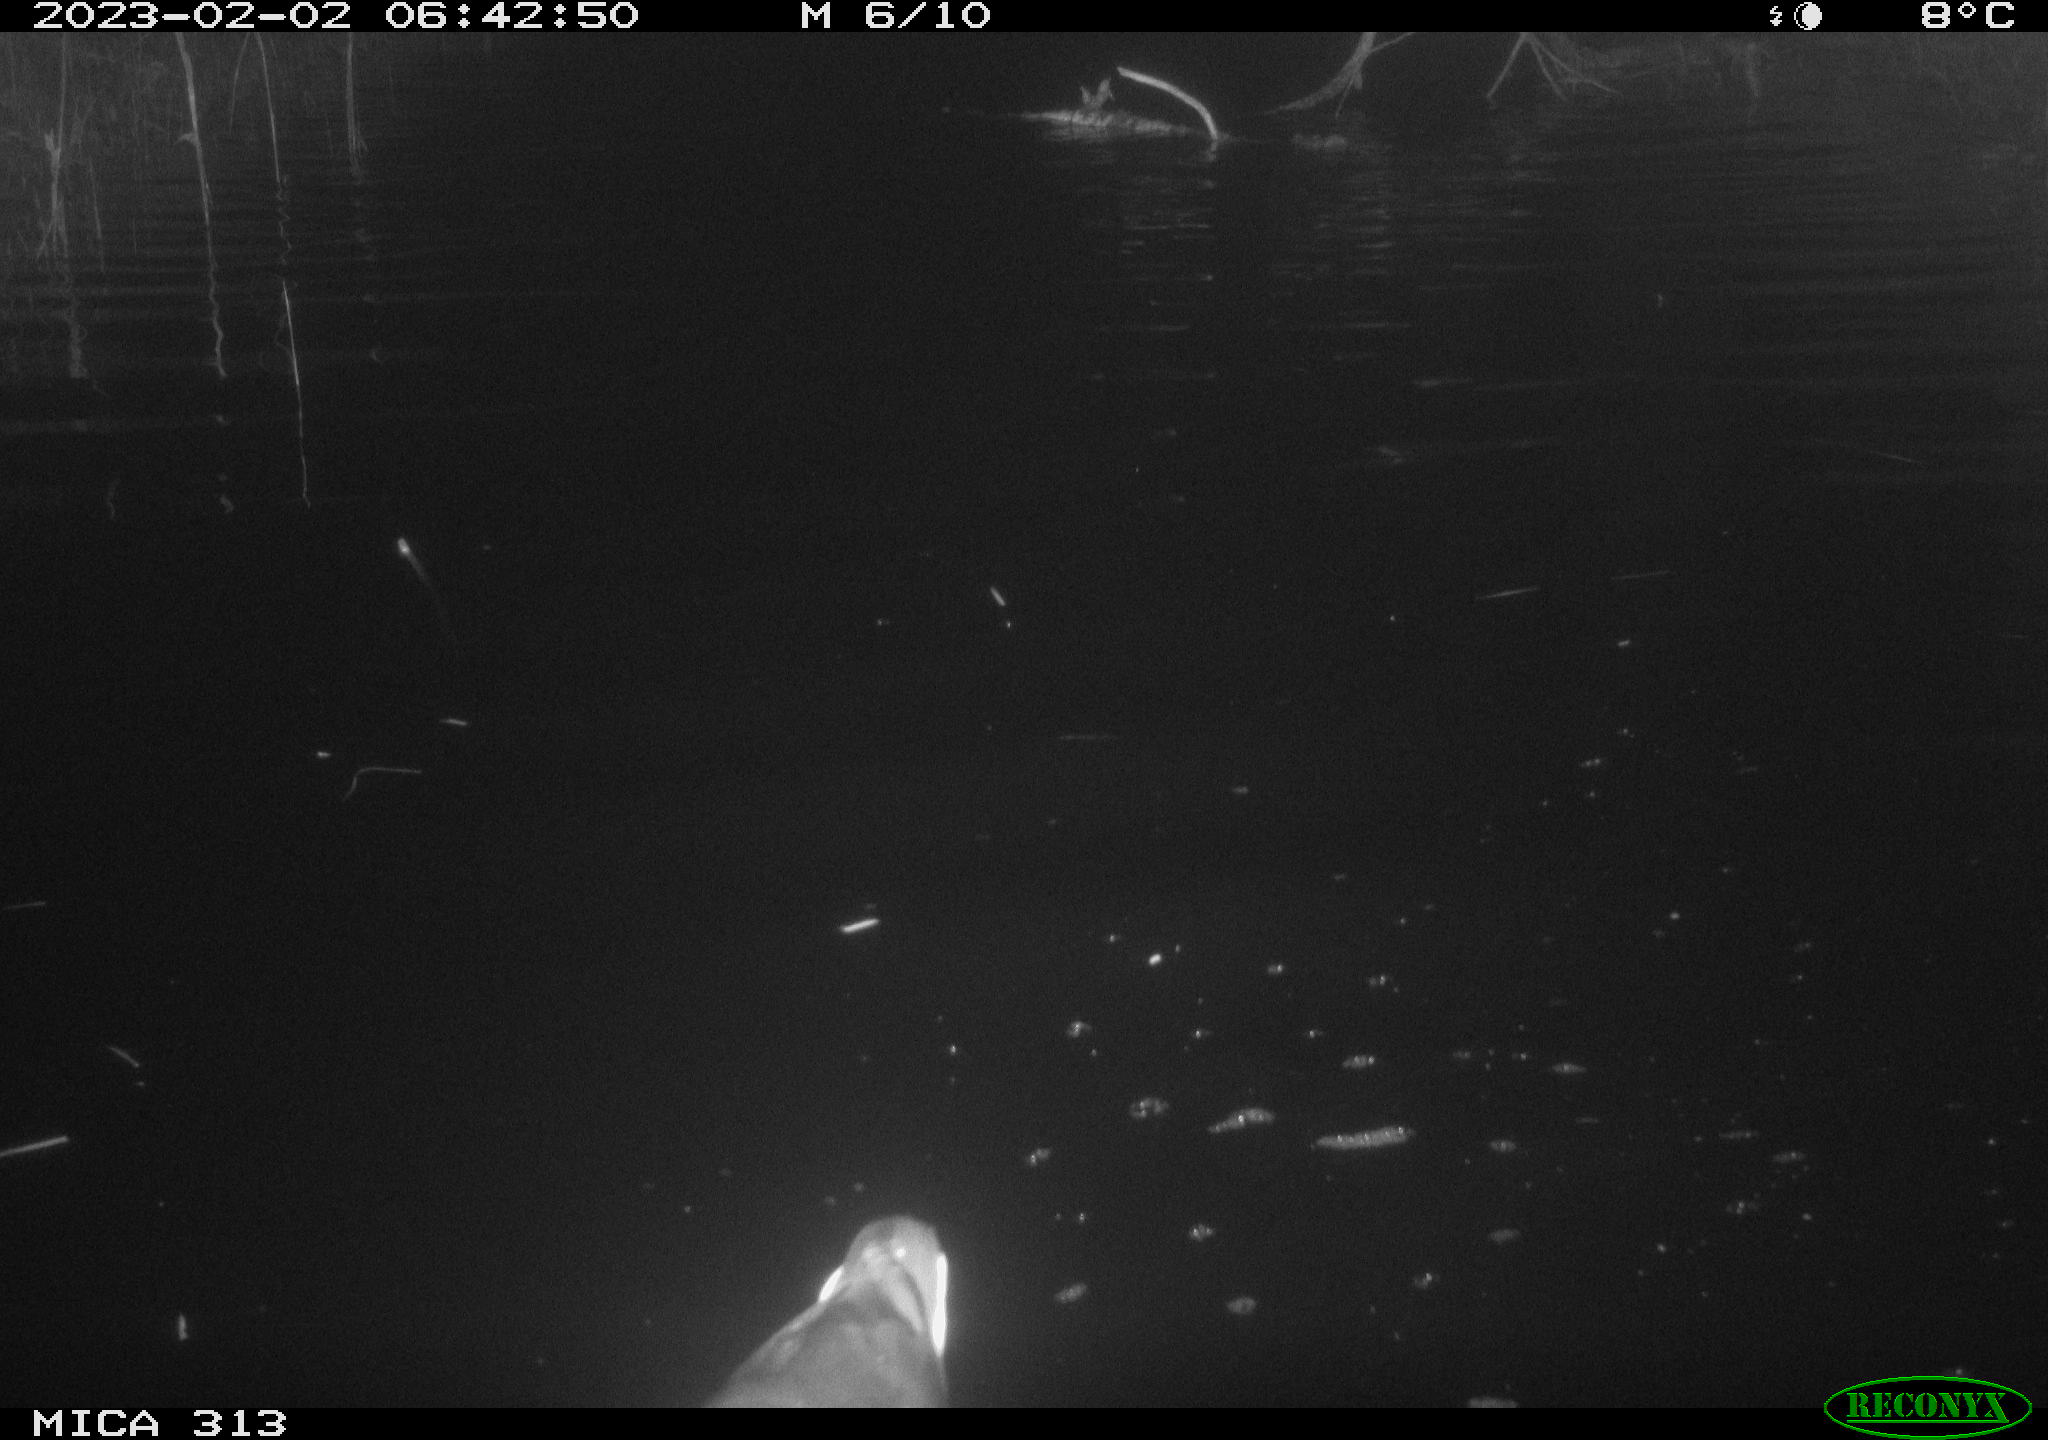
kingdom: Animalia
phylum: Chordata
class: Aves
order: Gruiformes
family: Rallidae
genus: Gallinula
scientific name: Gallinula chloropus
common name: Common moorhen
